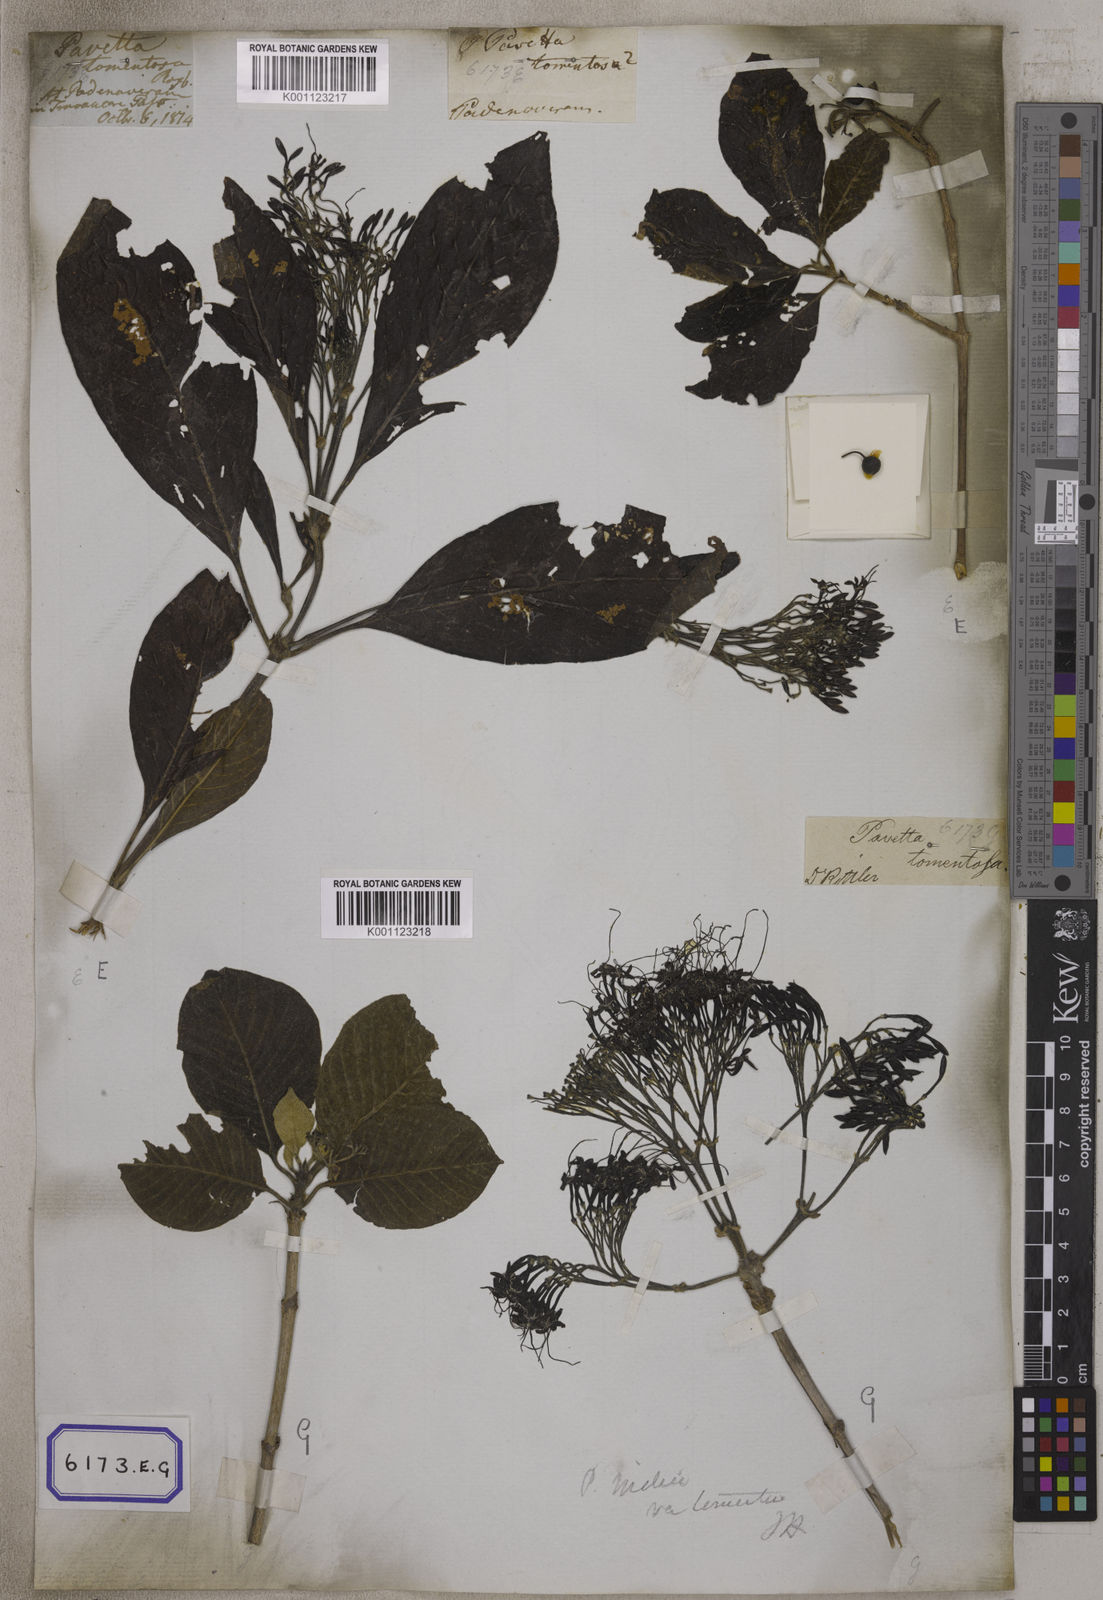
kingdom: Plantae
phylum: Tracheophyta
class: Magnoliopsida
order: Gentianales
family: Rubiaceae
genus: Pavetta
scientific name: Pavetta tomentosa
